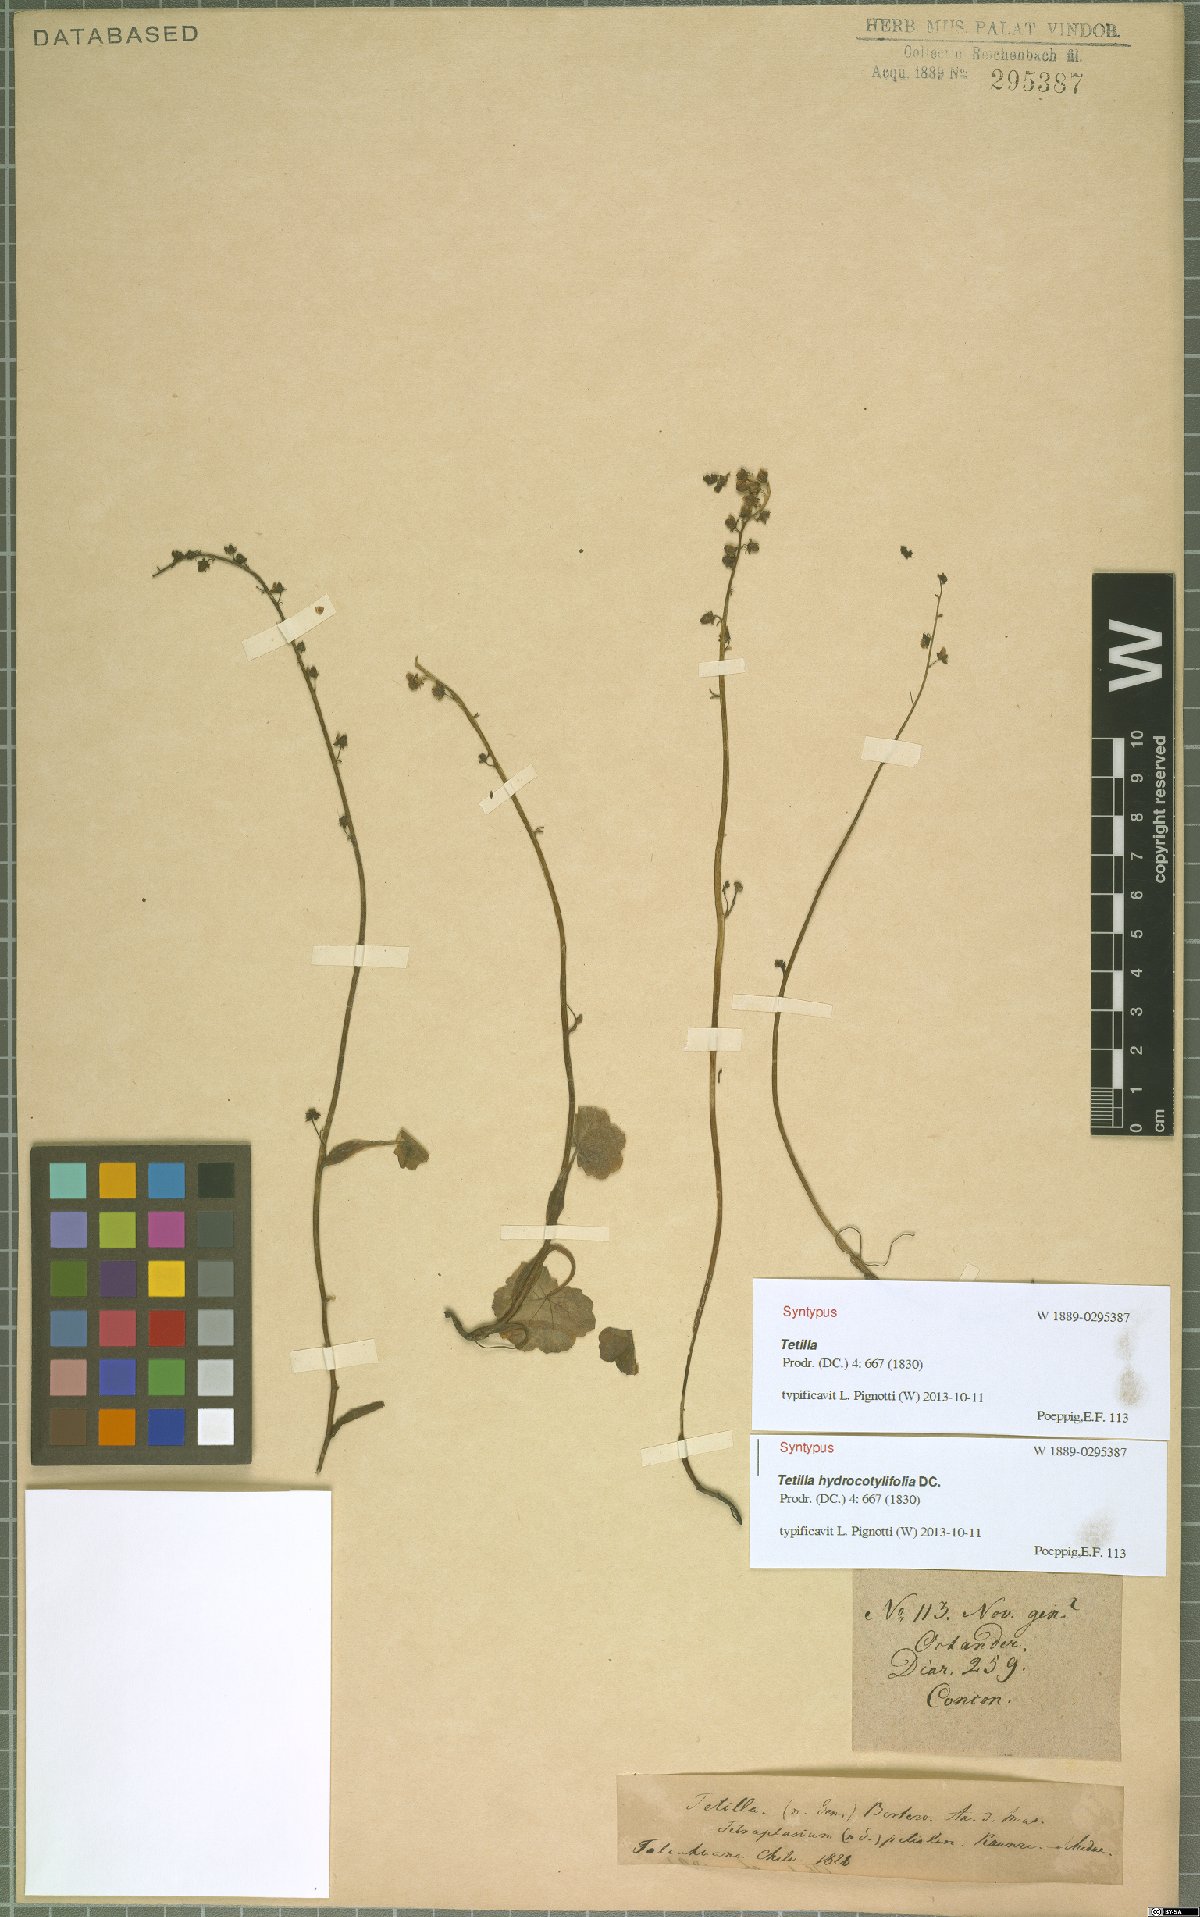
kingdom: Plantae
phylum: Tracheophyta
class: Magnoliopsida
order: Geraniales
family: Francoaceae
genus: Tetilla
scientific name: Tetilla hydrocotylifolia
